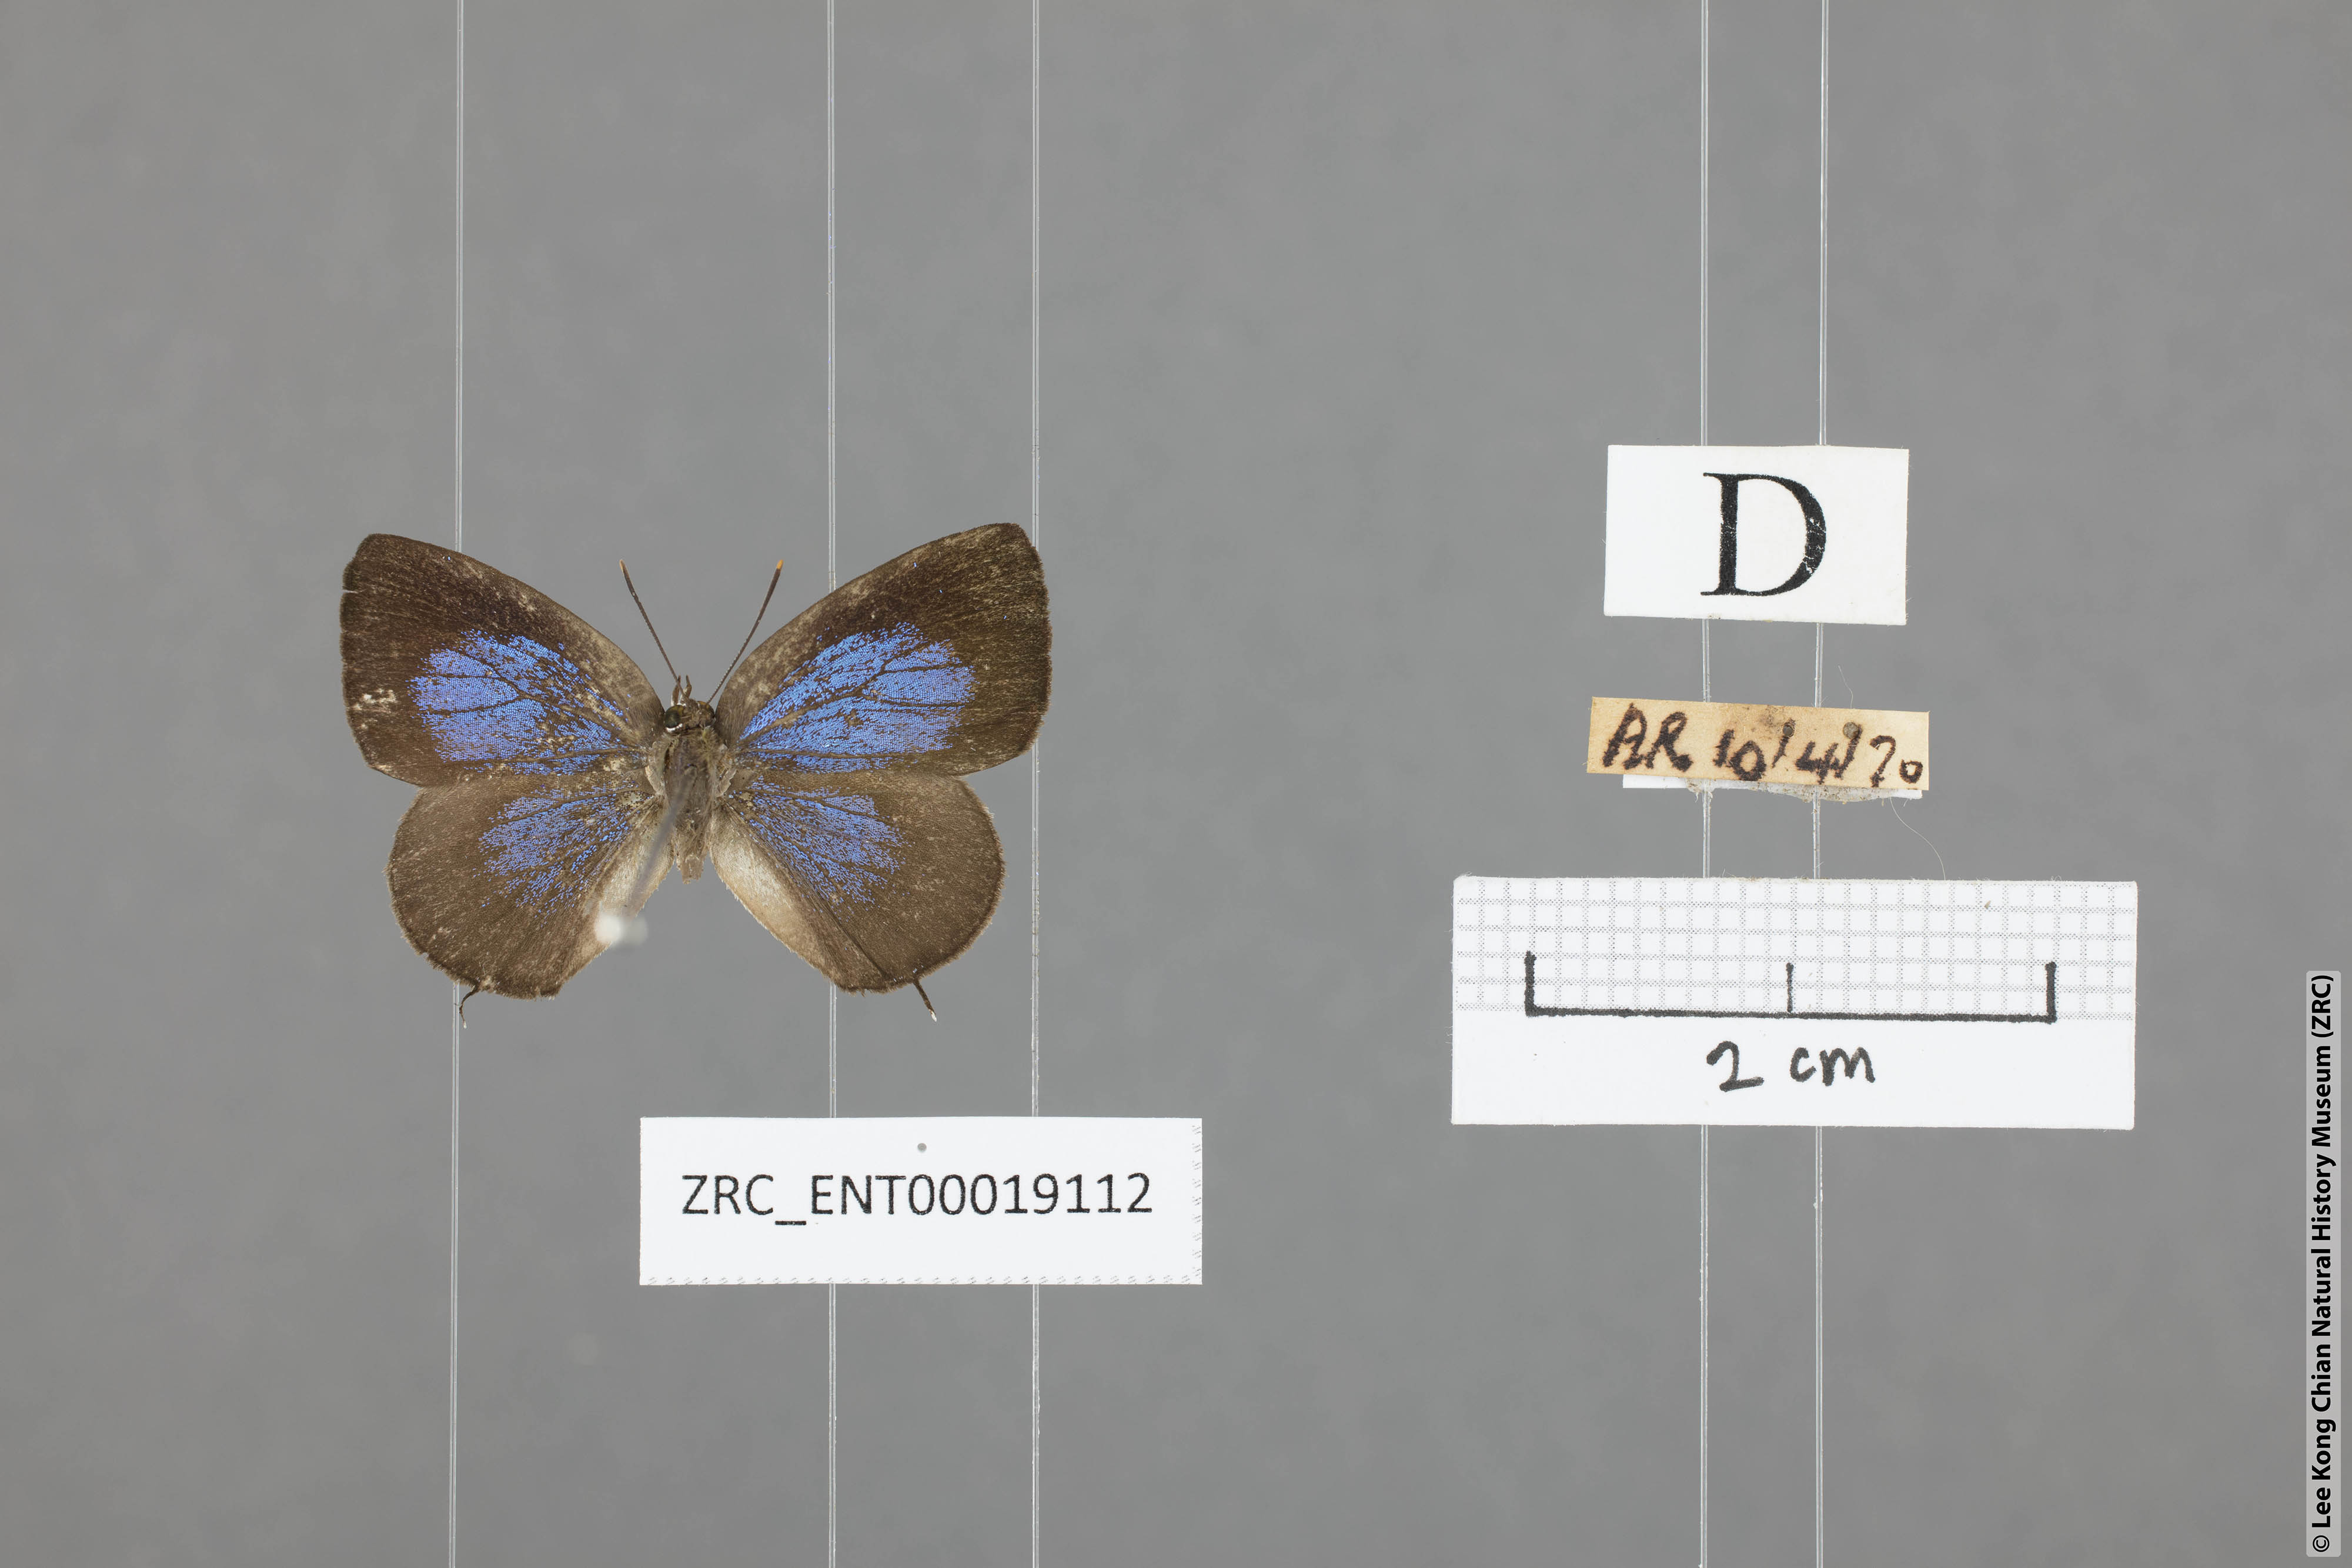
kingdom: Animalia
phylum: Arthropoda
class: Insecta
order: Lepidoptera
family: Lycaenidae
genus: Arhopala
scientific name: Arhopala ammonides
